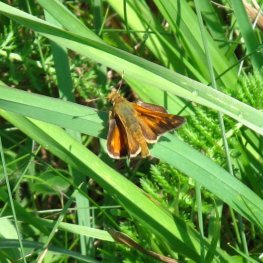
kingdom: Animalia
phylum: Arthropoda
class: Insecta
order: Lepidoptera
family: Hesperiidae
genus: Hesperia
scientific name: Hesperia comma
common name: Common Branded Skipper
